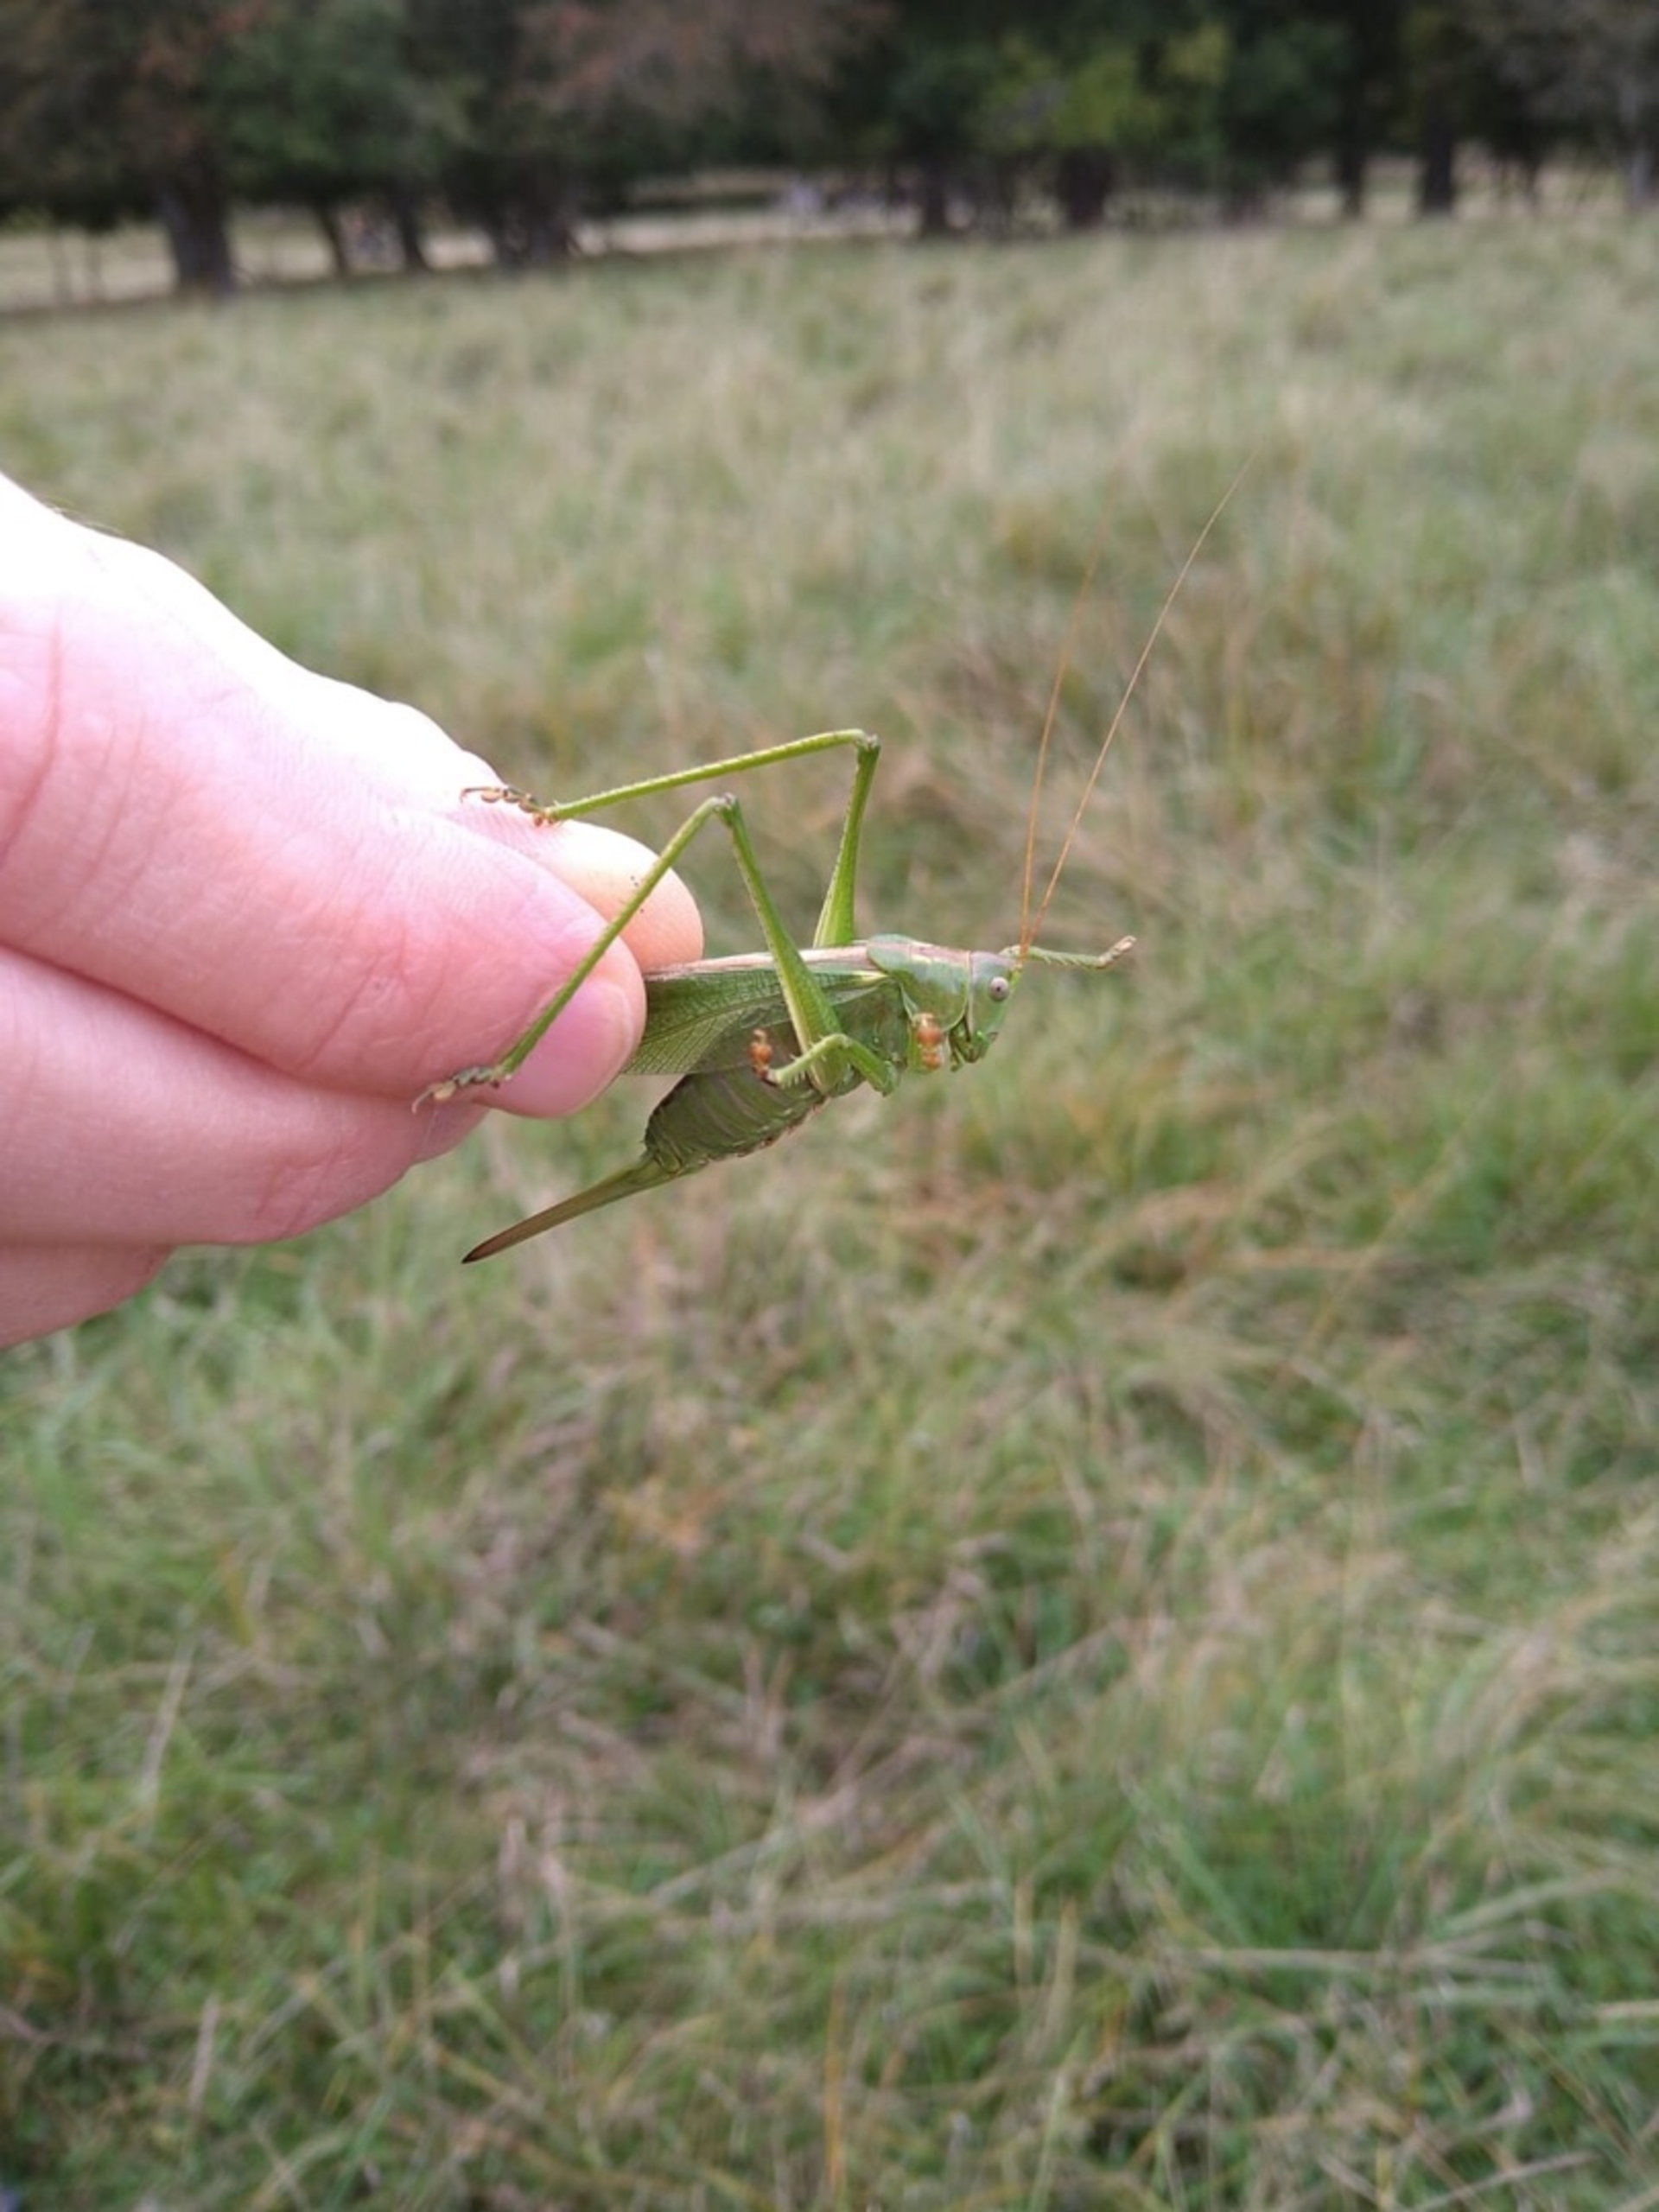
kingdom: Animalia
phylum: Arthropoda
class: Insecta
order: Orthoptera
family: Tettigoniidae
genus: Tettigonia
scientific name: Tettigonia viridissima
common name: Stor grøn løvgræshoppe
